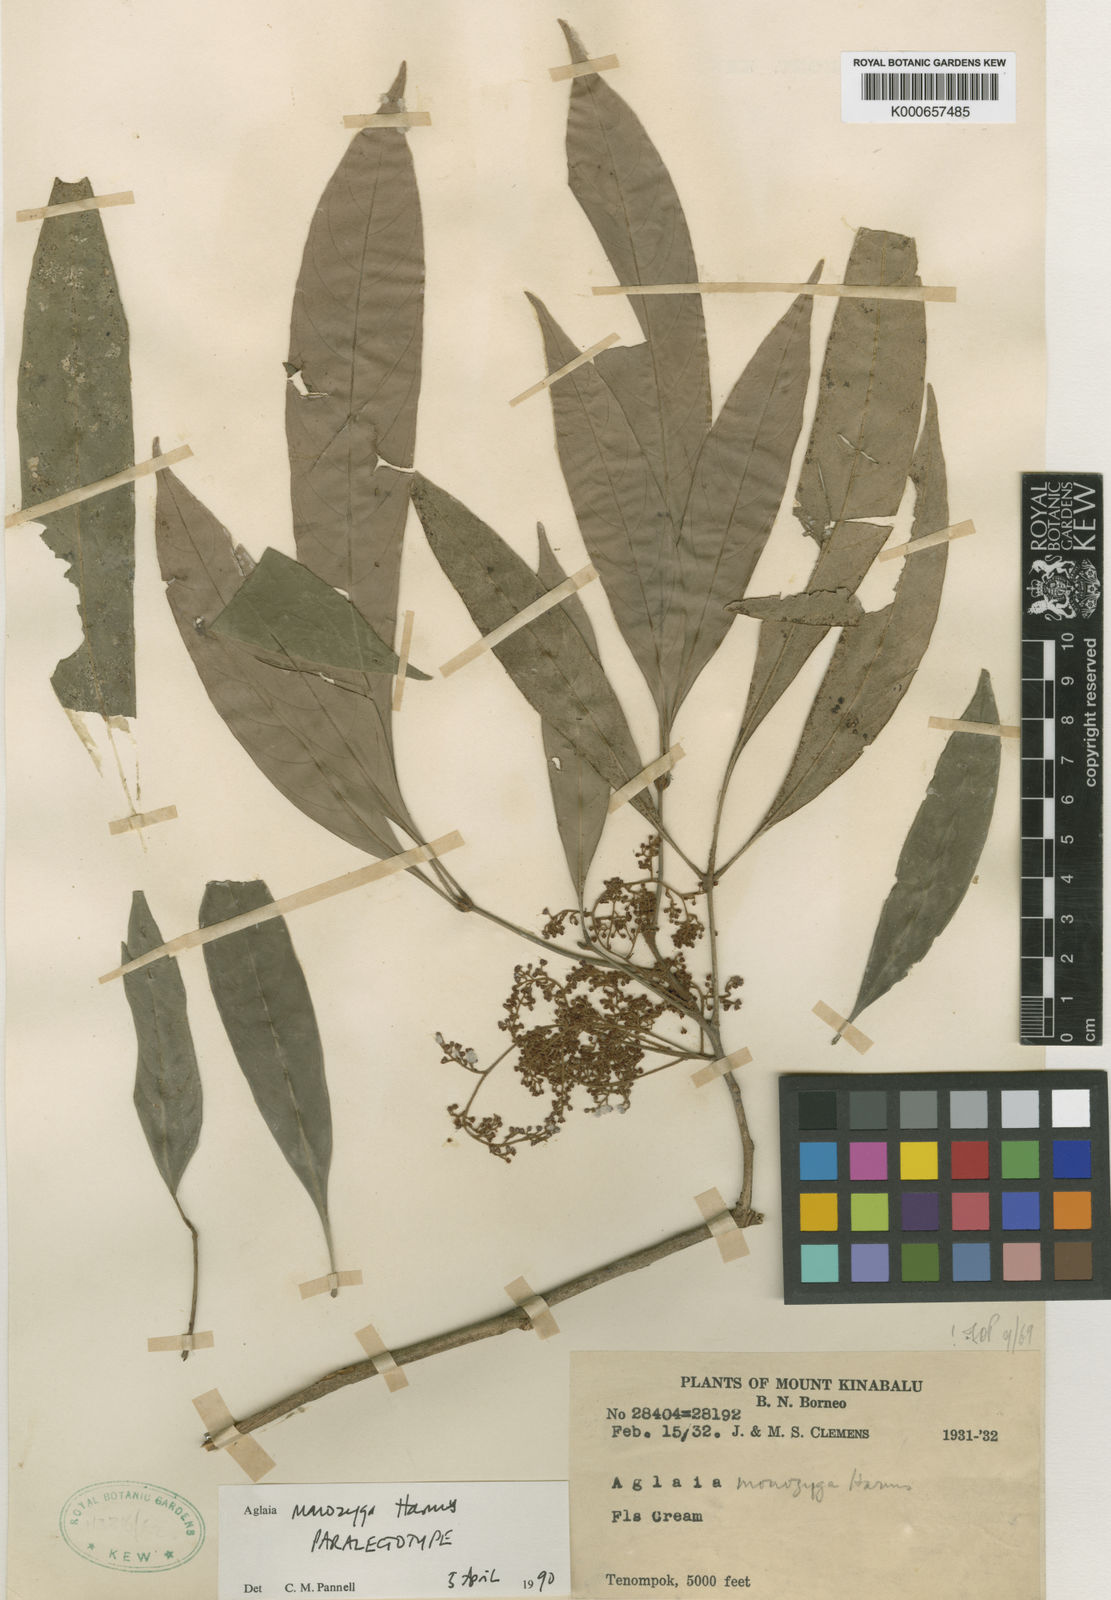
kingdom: Plantae
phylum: Tracheophyta
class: Magnoliopsida
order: Sapindales
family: Meliaceae
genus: Aglaia
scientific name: Aglaia monozyga
